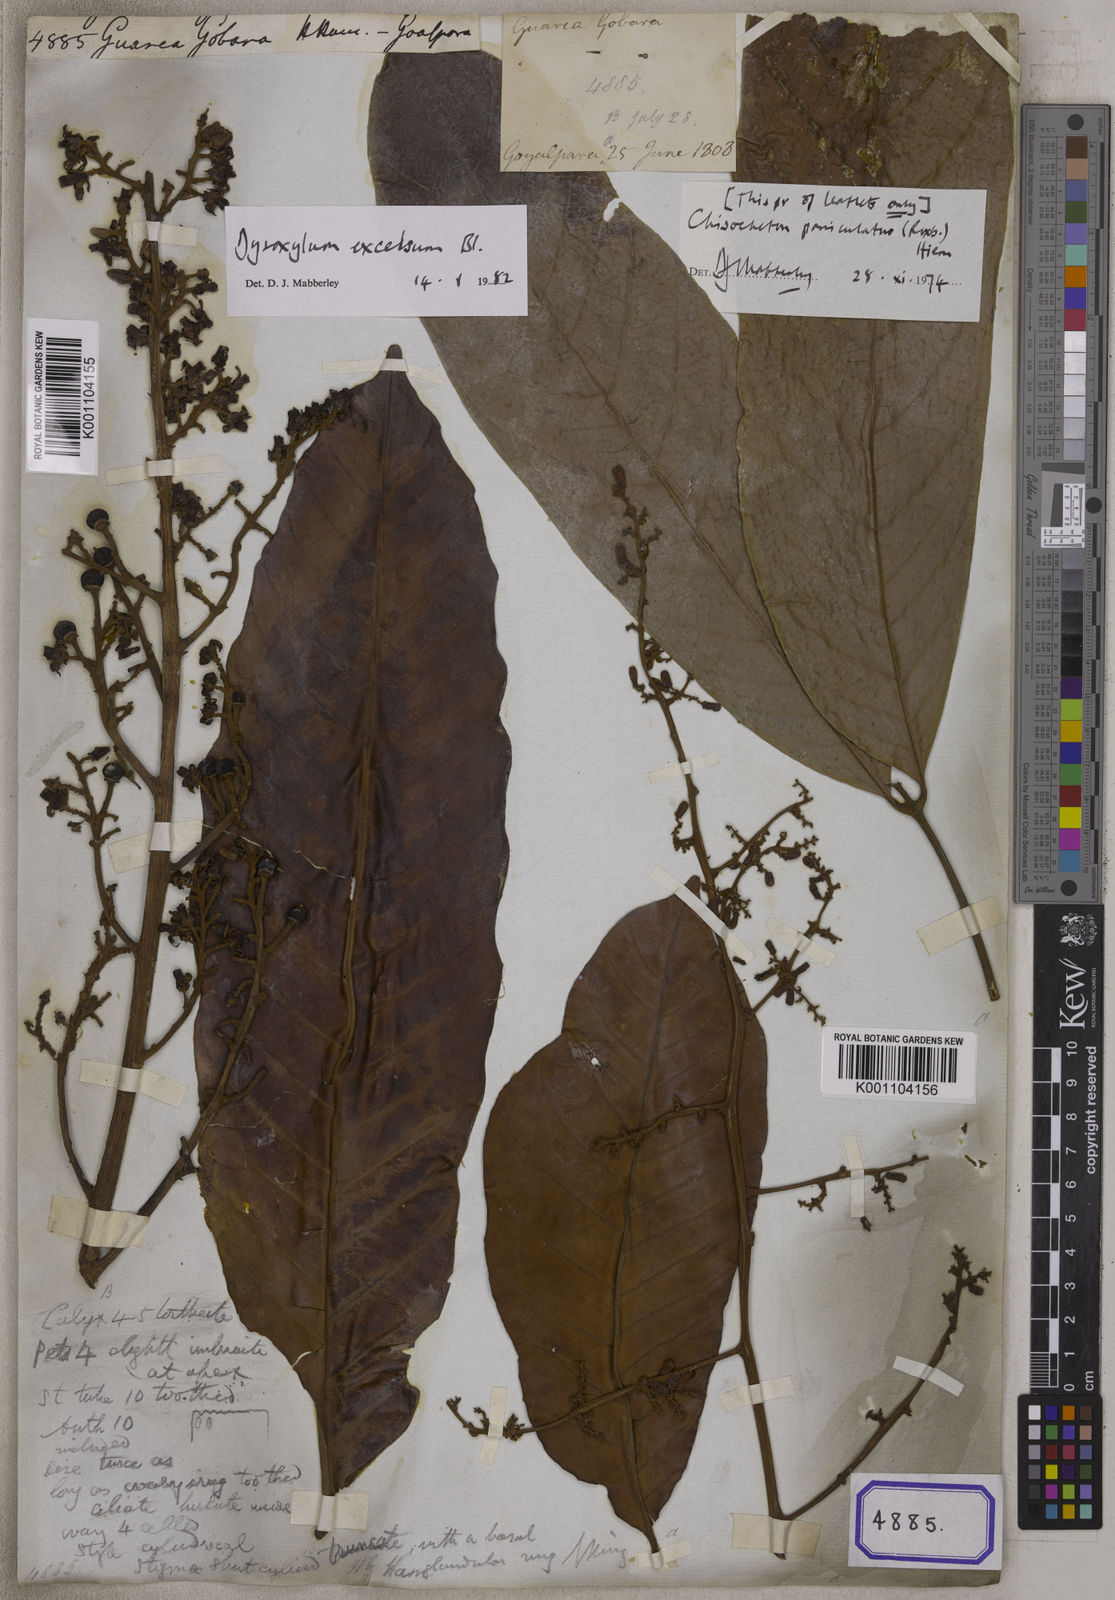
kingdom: Plantae
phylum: Tracheophyta
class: Magnoliopsida
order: Sapindales
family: Meliaceae
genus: Prasoxylon
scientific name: Prasoxylon excelsum
